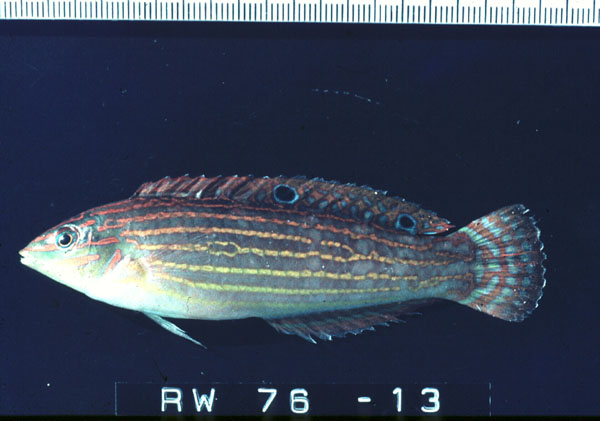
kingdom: Animalia
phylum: Chordata
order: Perciformes
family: Labridae
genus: Halichoeres
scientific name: Halichoeres cosmetus
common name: Adorned wrasse
